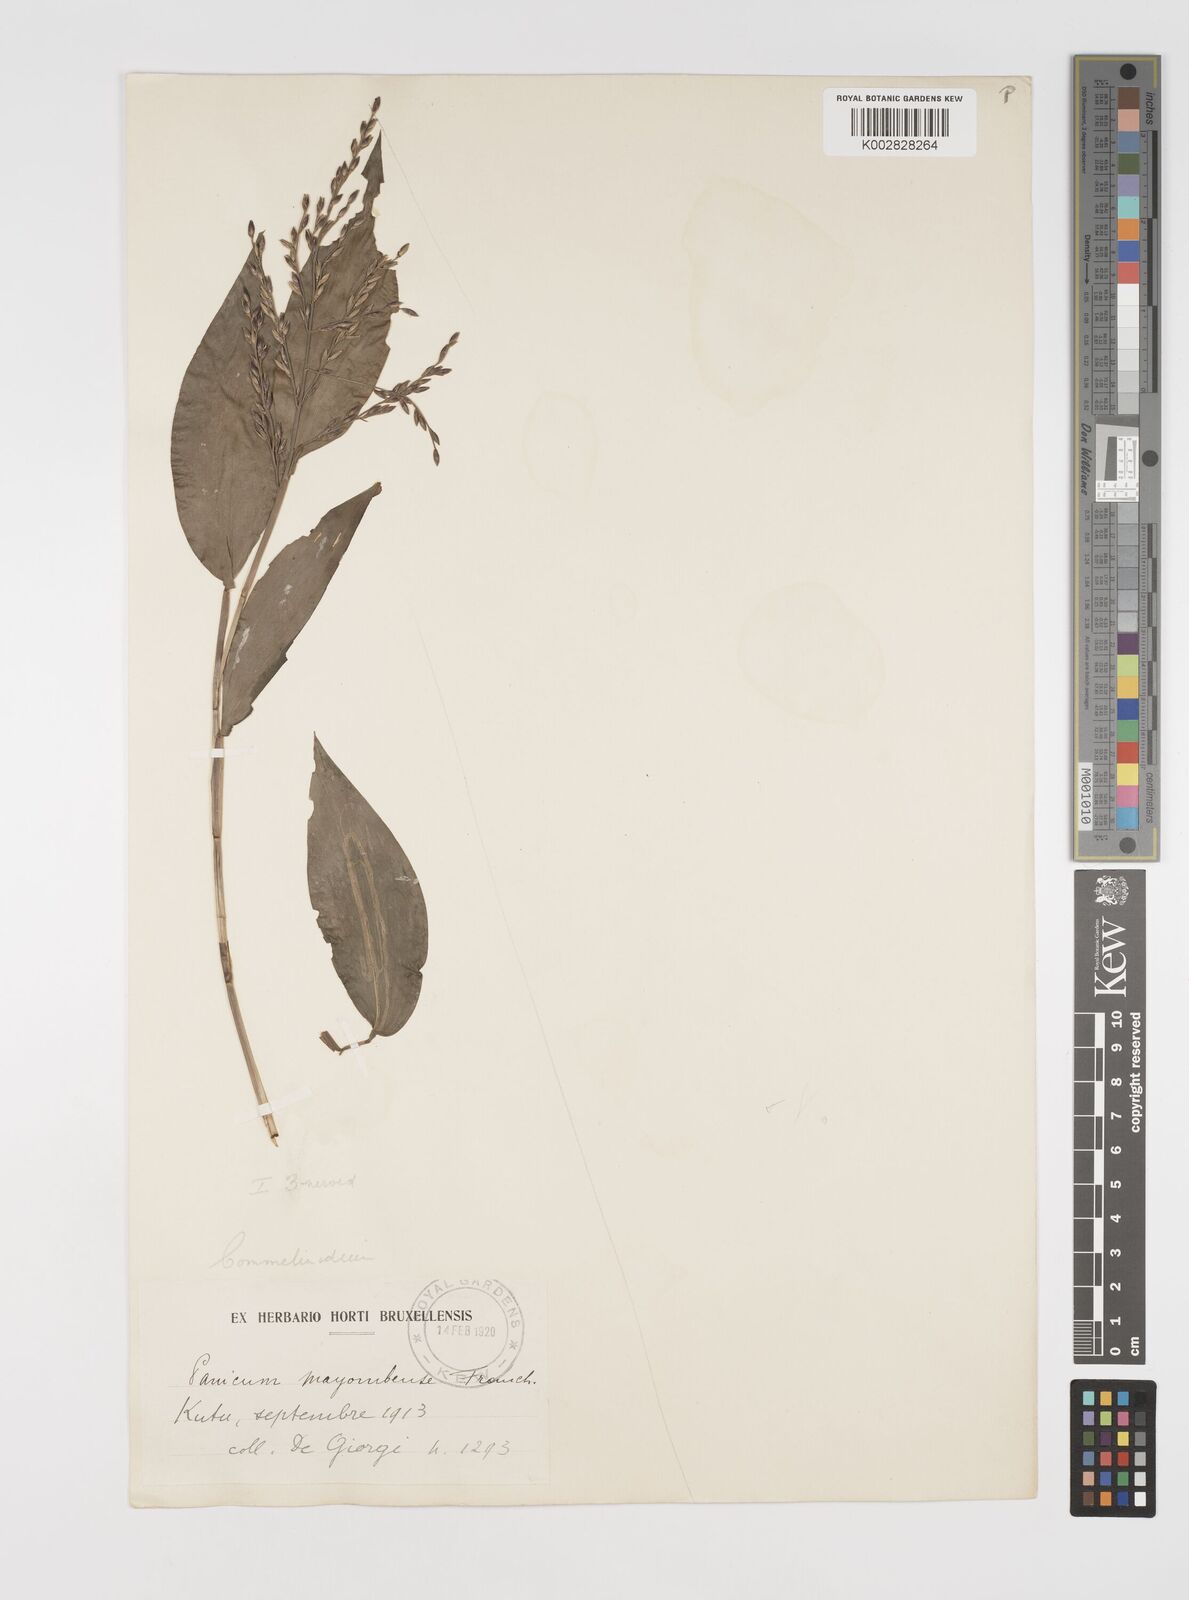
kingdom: Plantae
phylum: Tracheophyta
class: Liliopsida
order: Poales
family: Poaceae
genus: Acroceras
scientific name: Acroceras gabunense
